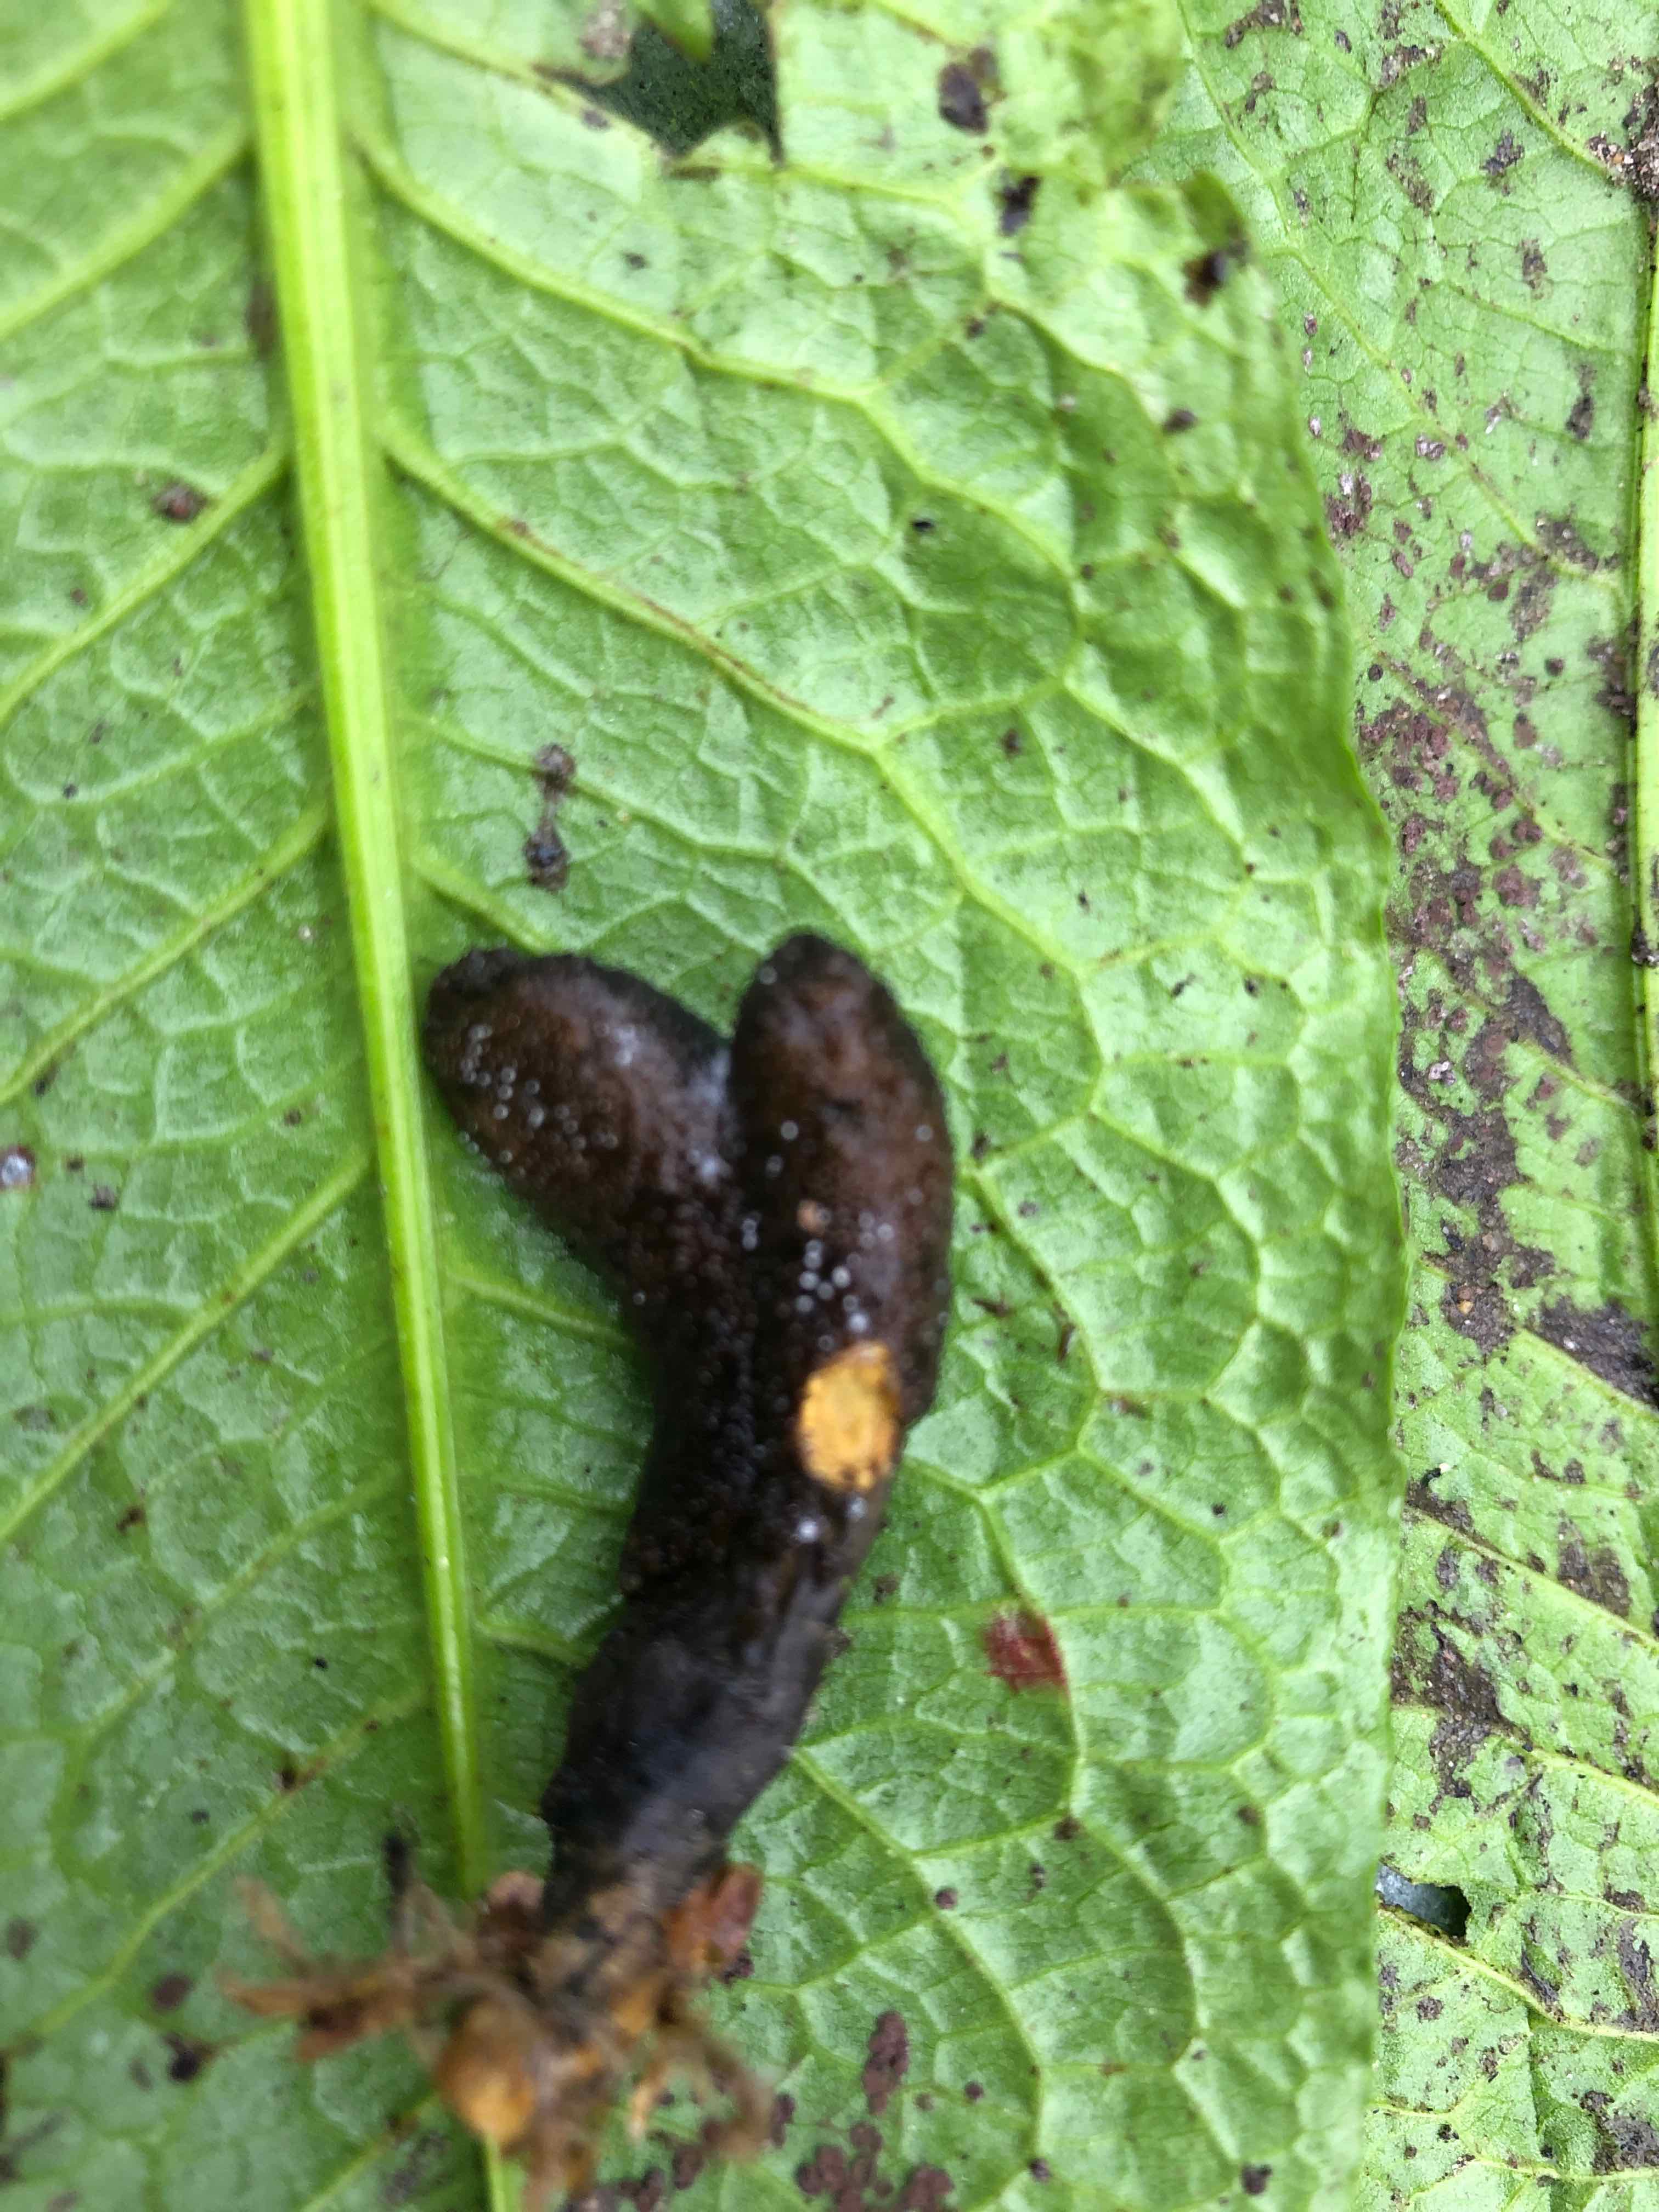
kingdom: Fungi
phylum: Ascomycota
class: Sordariomycetes
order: Hypocreales
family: Ophiocordycipitaceae
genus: Tolypocladium
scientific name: Tolypocladium ophioglossoides
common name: slank snyltekølle
